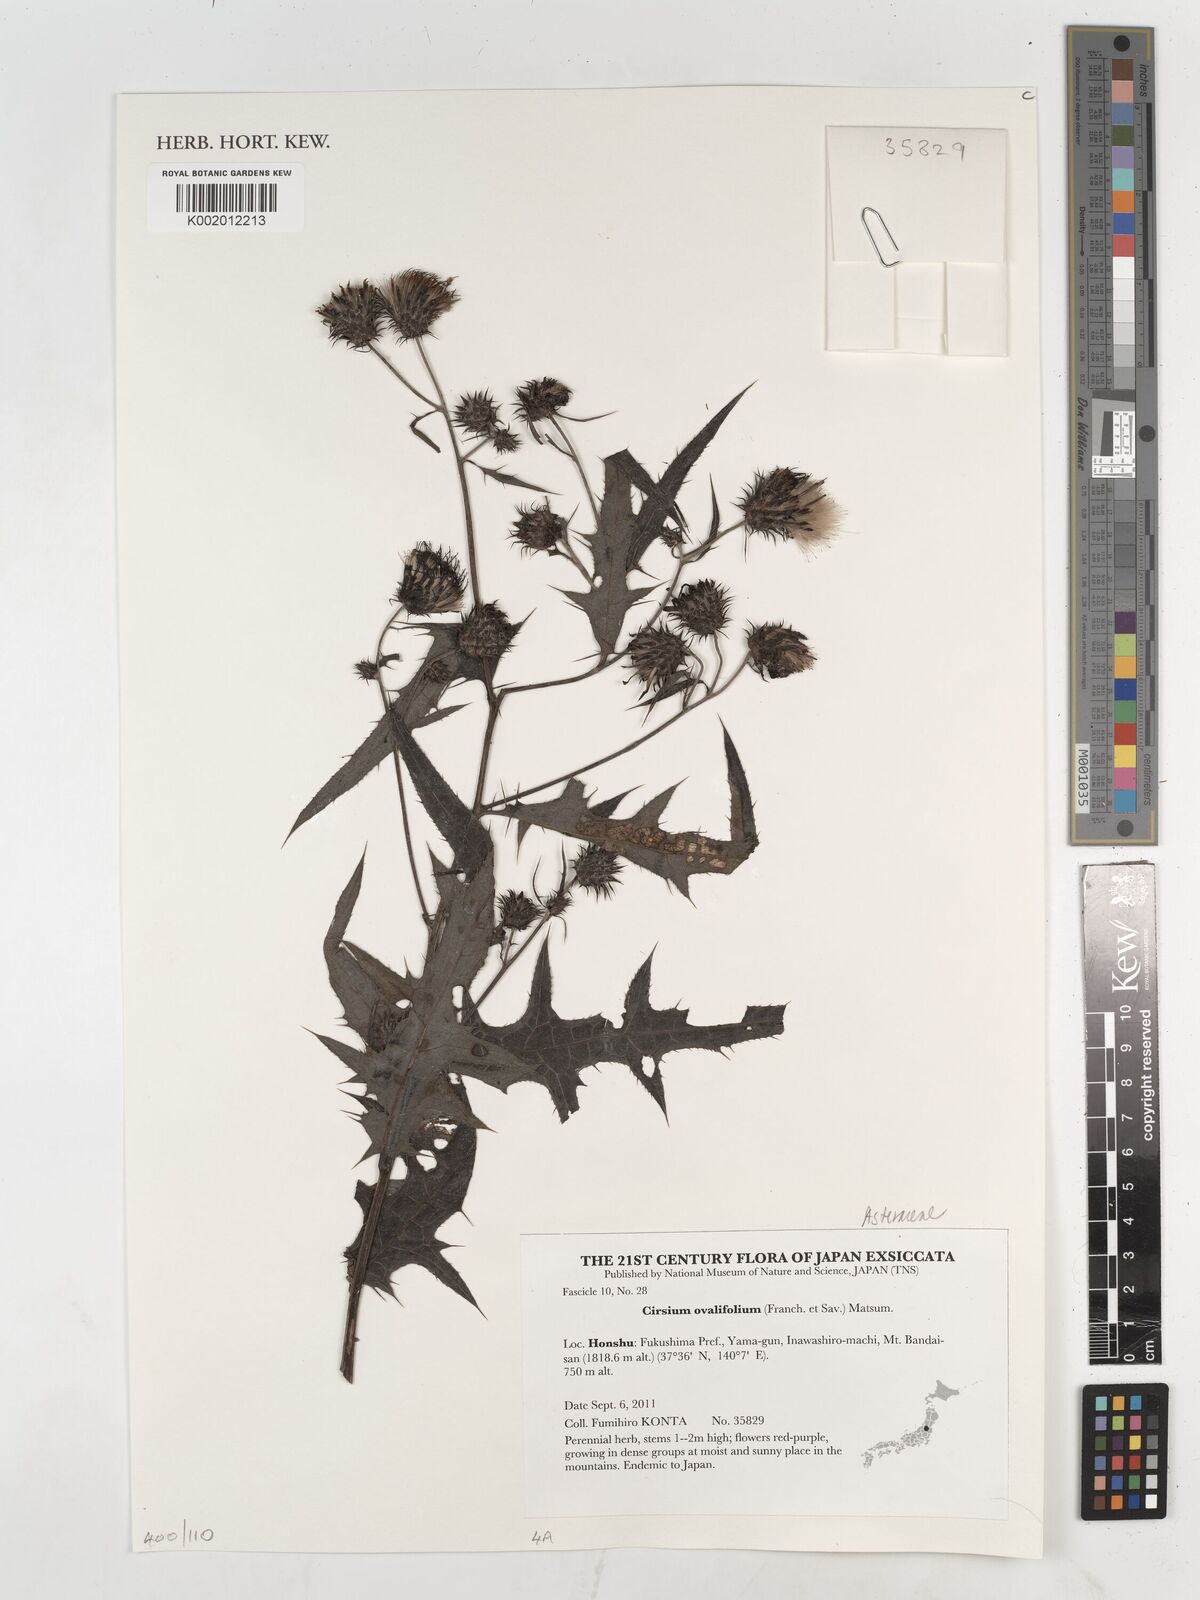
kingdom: Plantae
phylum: Tracheophyta
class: Magnoliopsida
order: Asterales
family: Asteraceae
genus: Cirsium
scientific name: Cirsium nipponicum
